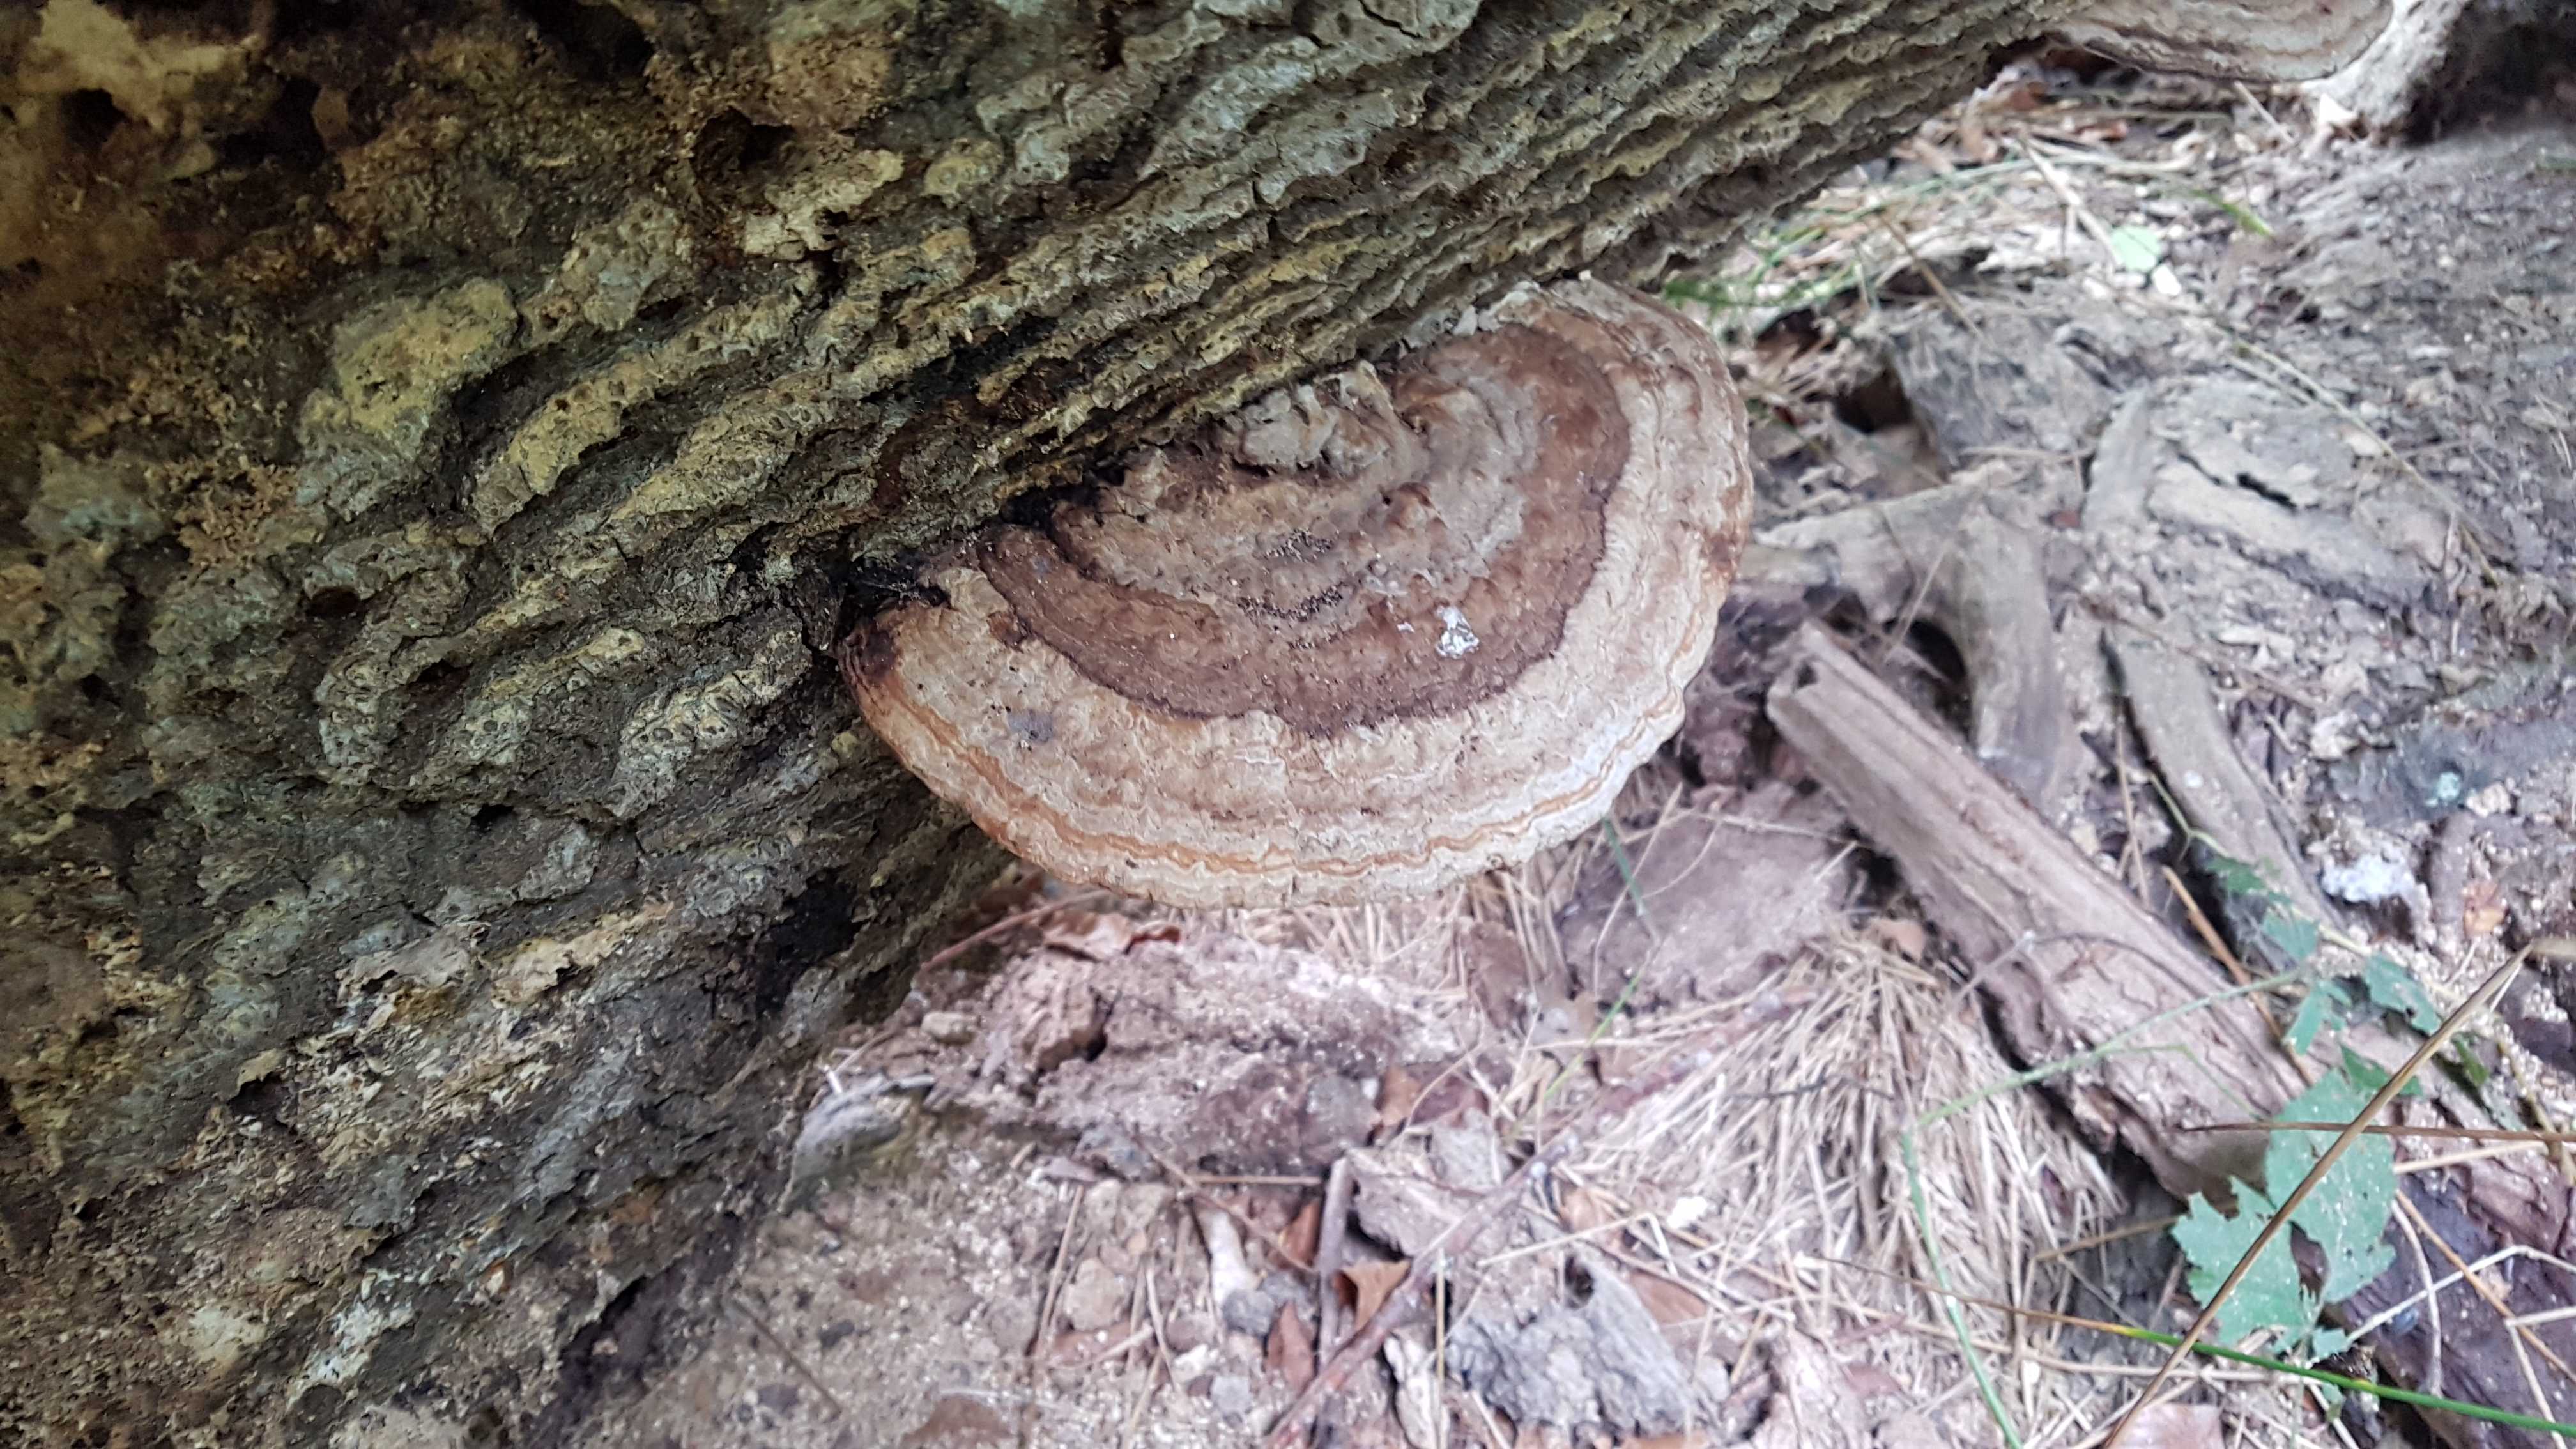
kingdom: Fungi
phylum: Basidiomycota
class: Agaricomycetes
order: Polyporales
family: Polyporaceae
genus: Ganoderma
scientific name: Ganoderma applanatum
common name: flad lakporesvamp
